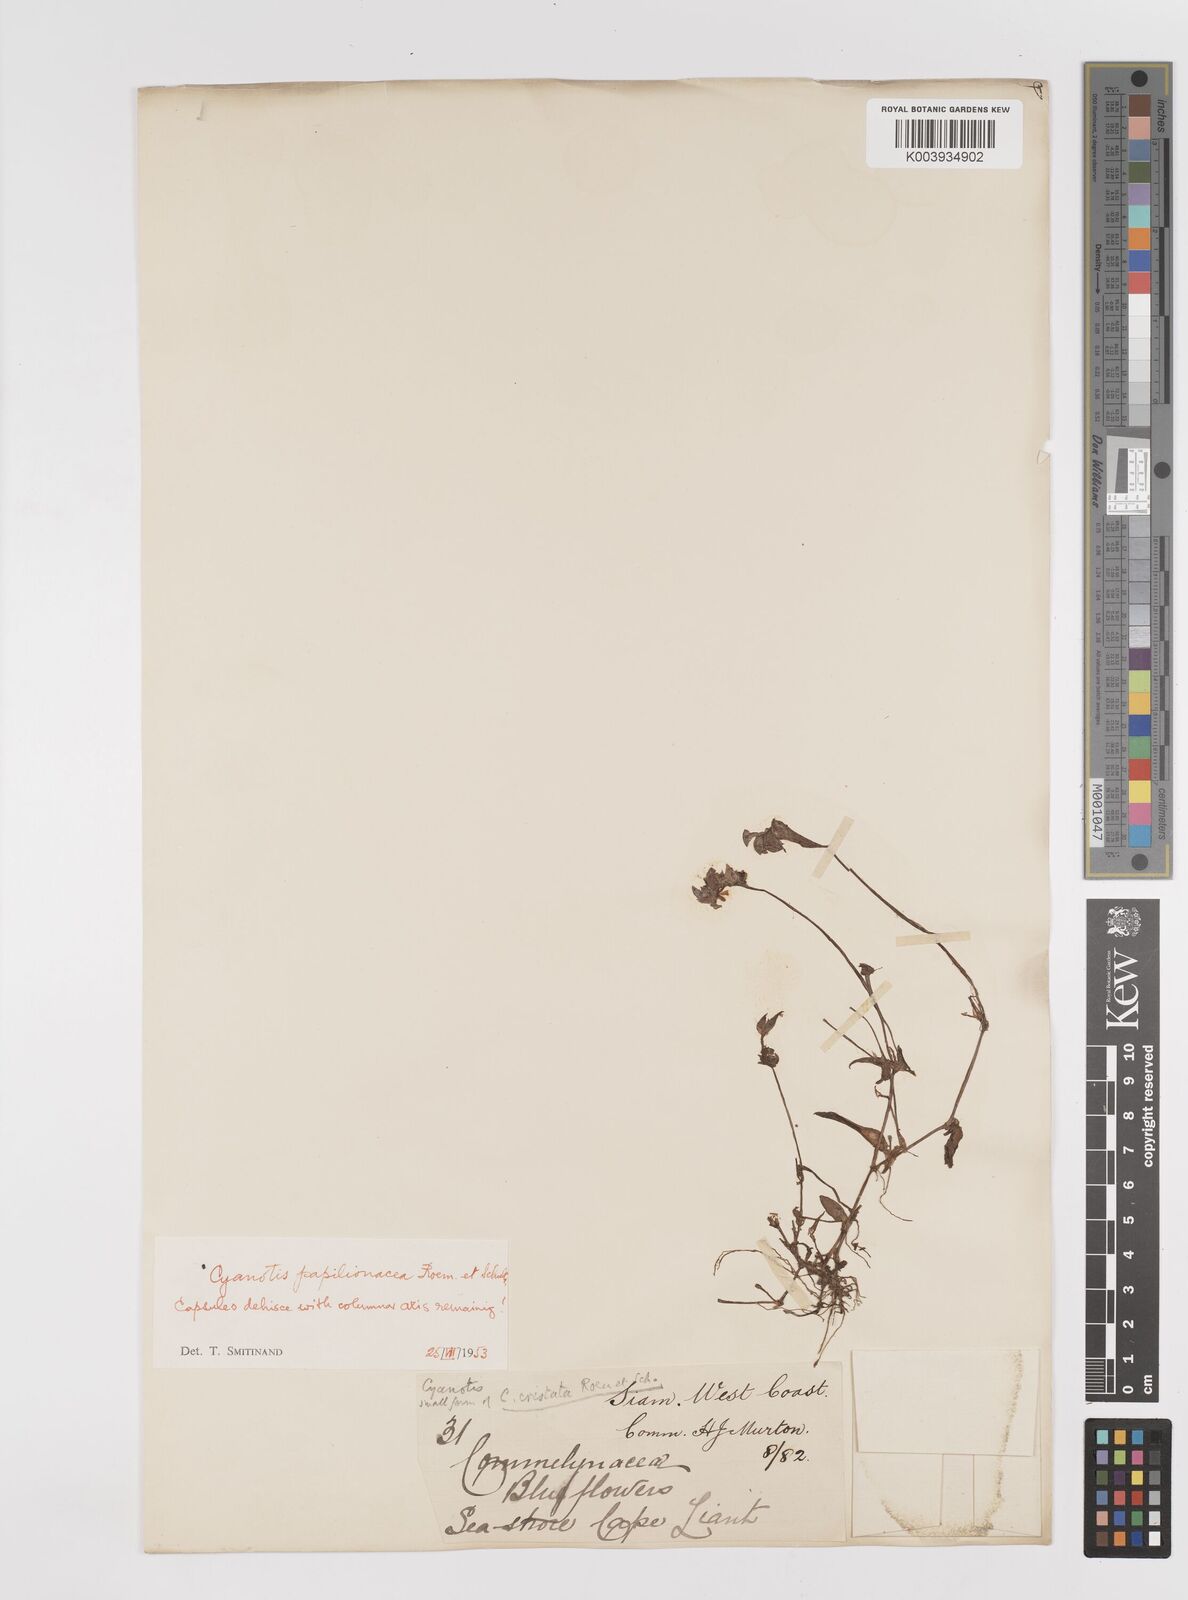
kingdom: Plantae
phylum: Tracheophyta
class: Liliopsida
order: Commelinales
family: Commelinaceae
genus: Cyanotis
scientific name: Cyanotis cristata
